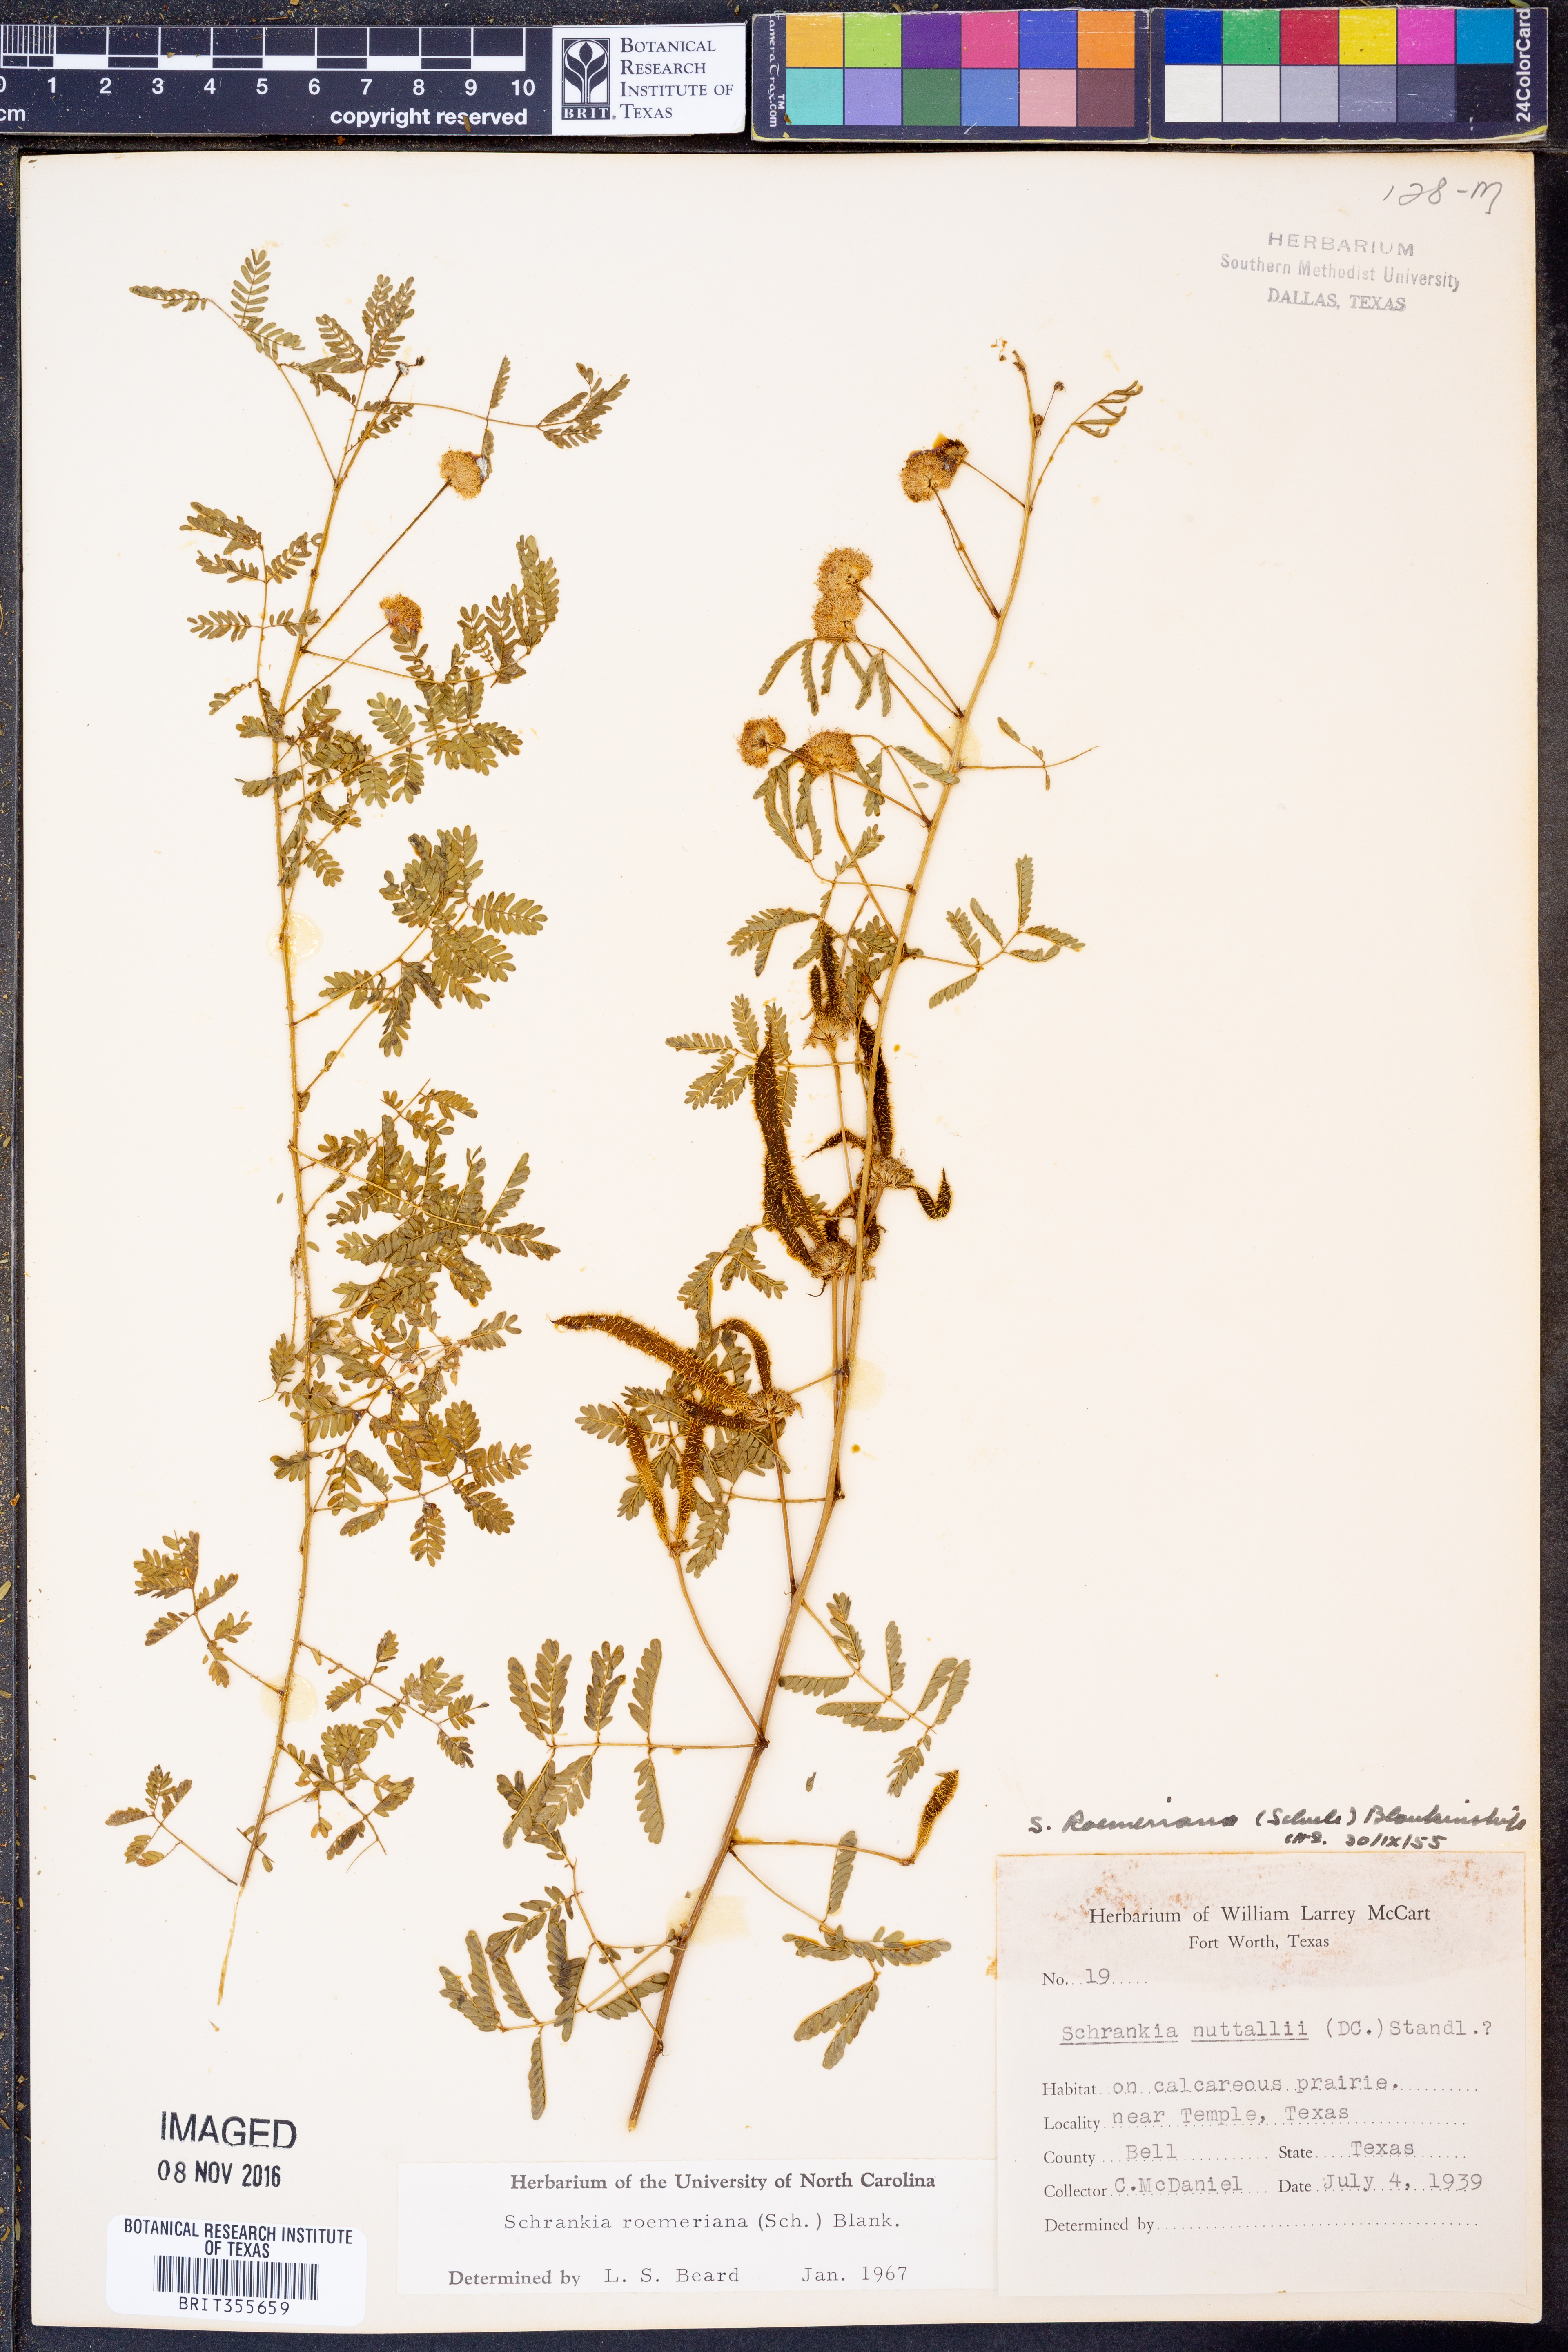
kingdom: Plantae
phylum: Tracheophyta
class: Magnoliopsida
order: Fabales
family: Fabaceae
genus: Mimosa
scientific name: Mimosa quadrivalvis
